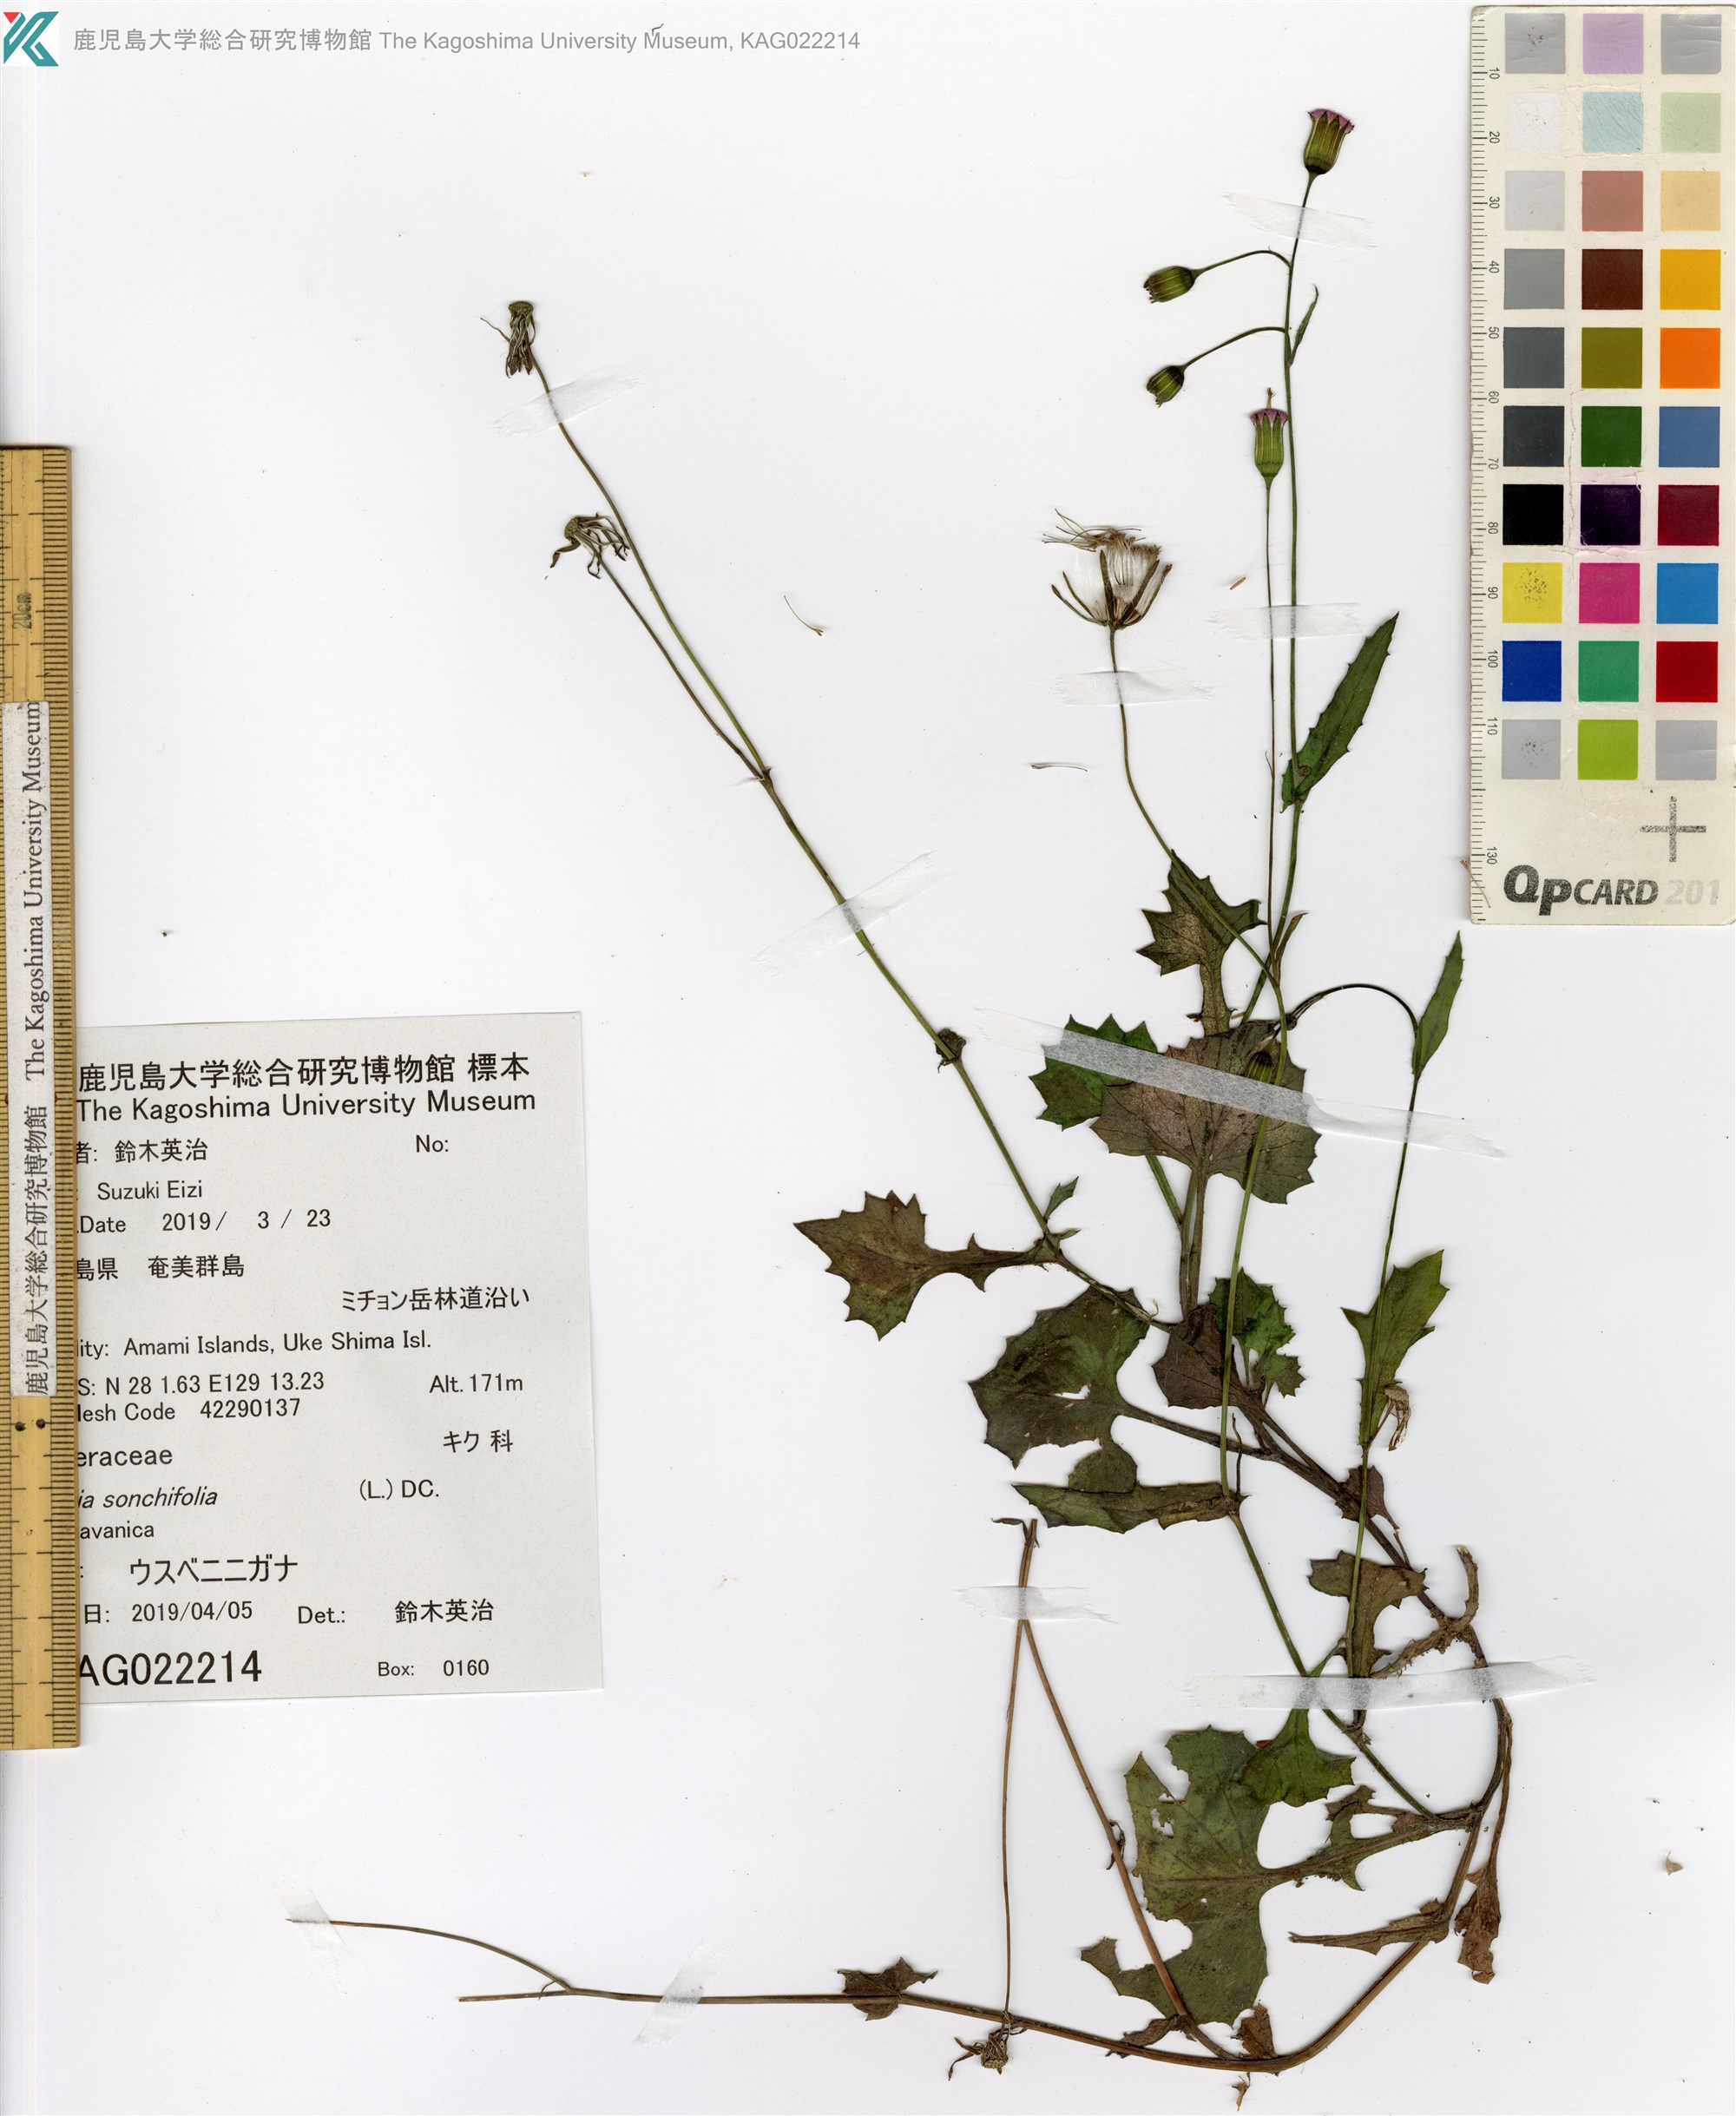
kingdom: Plantae
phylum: Tracheophyta
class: Magnoliopsida
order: Asterales
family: Asteraceae
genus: Emilia
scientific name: Emilia sonchifolia
